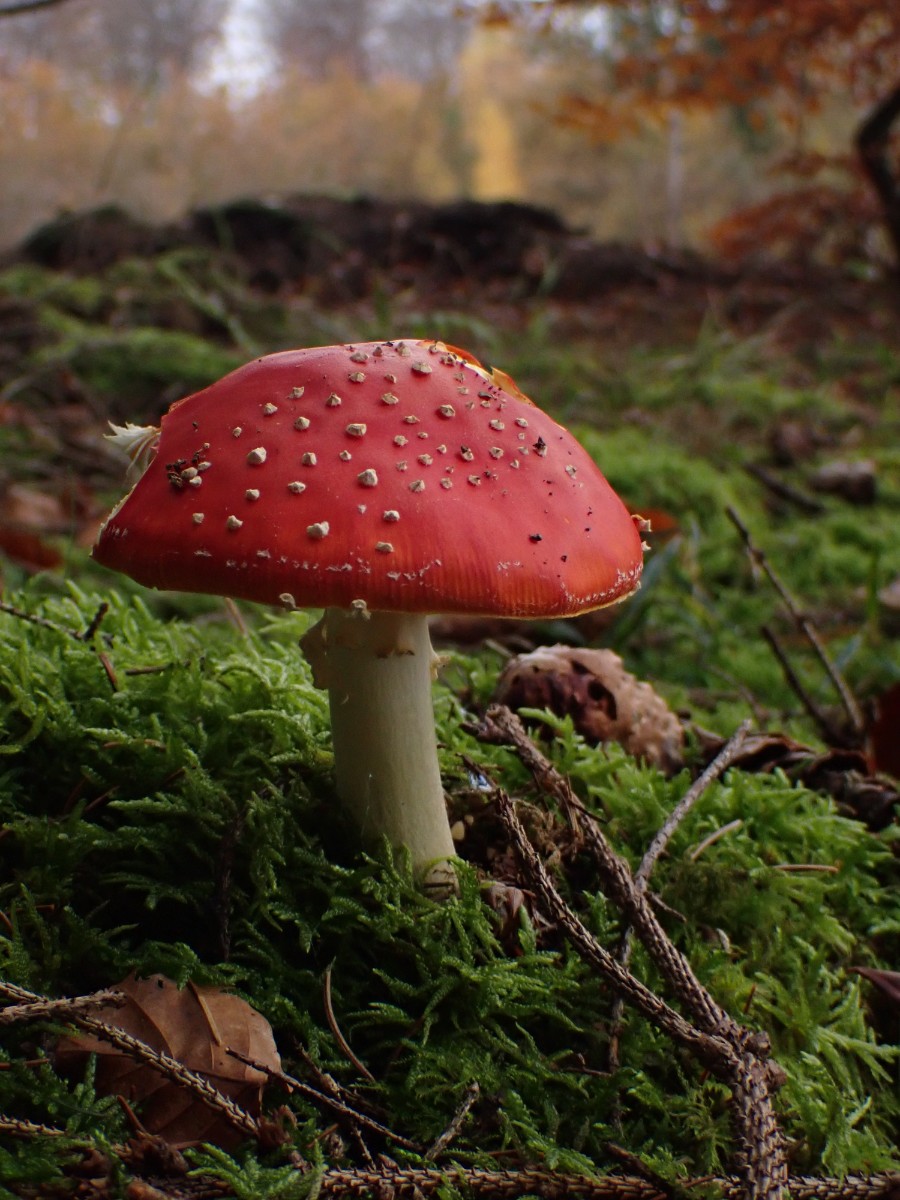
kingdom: Fungi
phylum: Basidiomycota
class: Agaricomycetes
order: Agaricales
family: Amanitaceae
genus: Amanita
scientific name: Amanita muscaria
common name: rød fluesvamp
